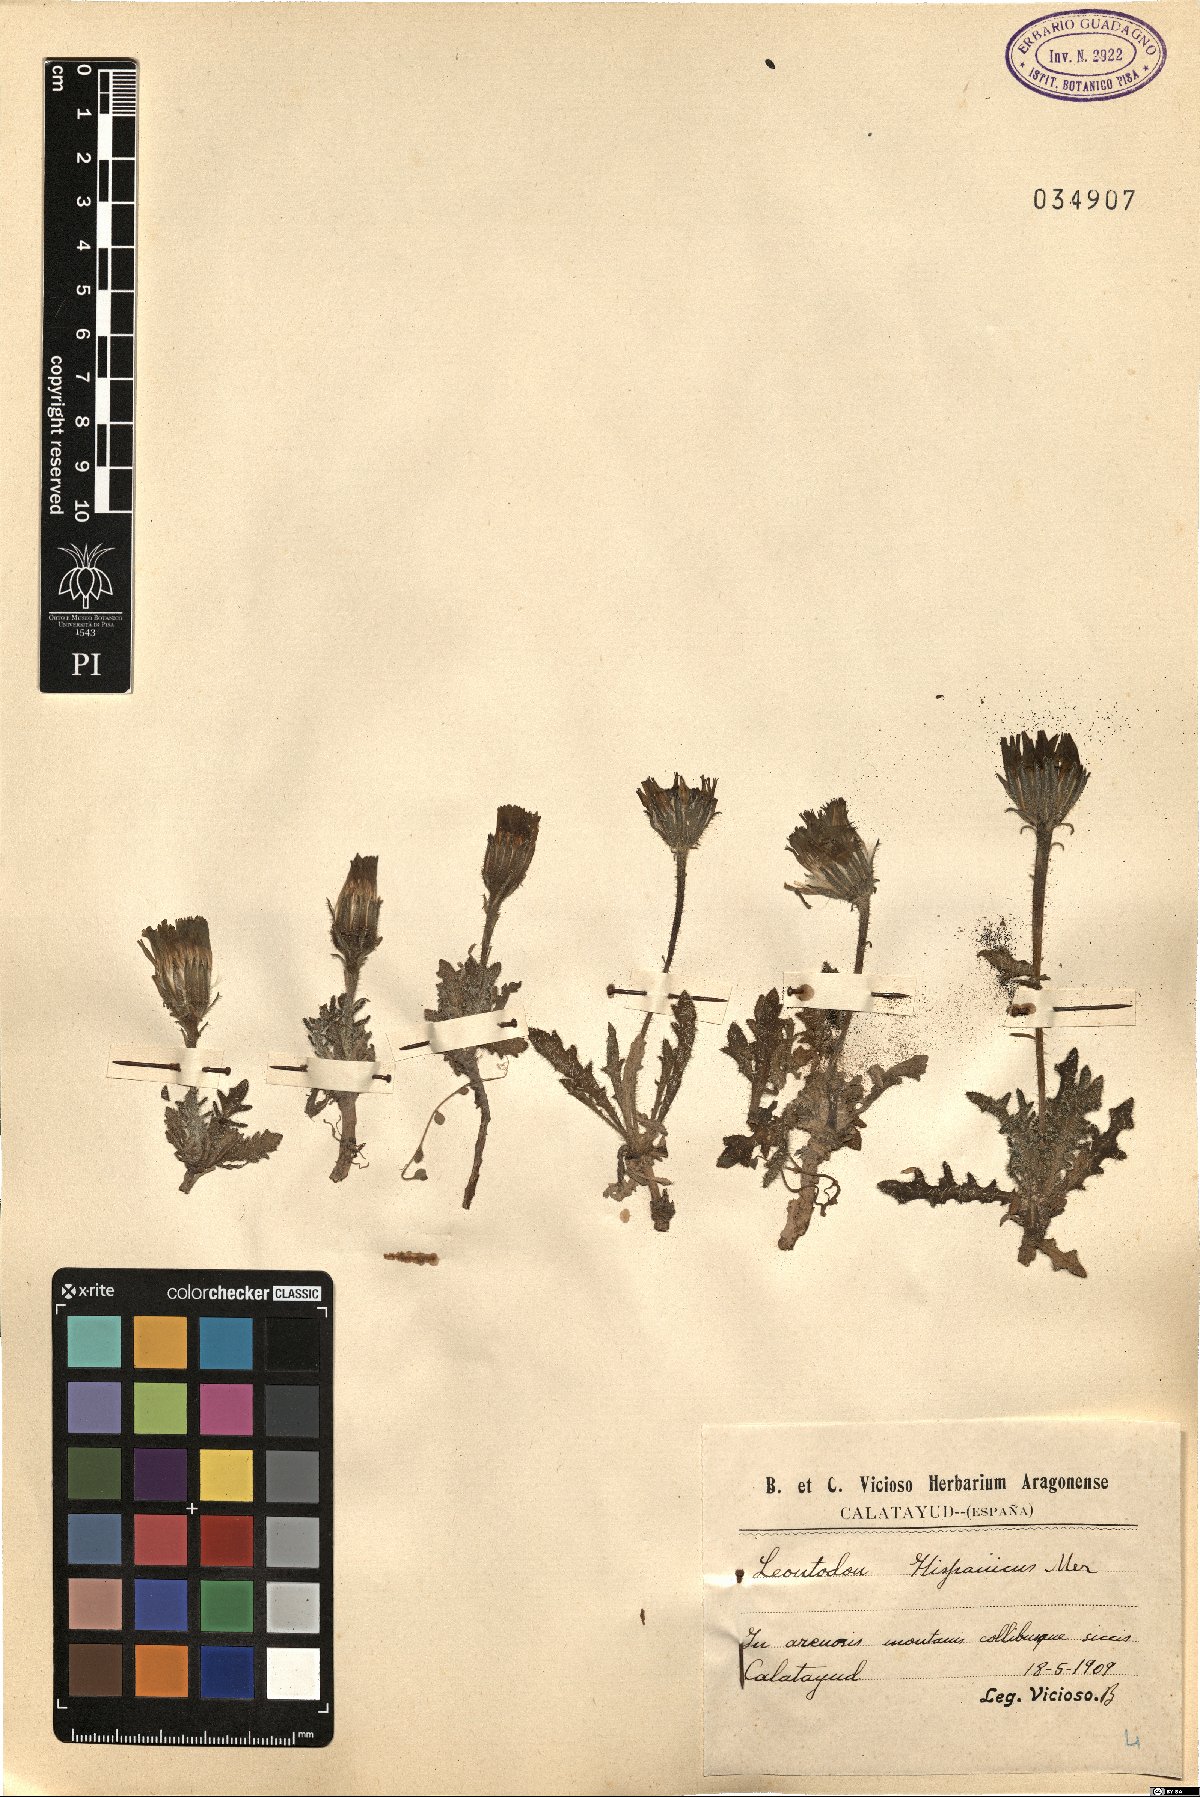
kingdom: Plantae
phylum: Tracheophyta
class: Magnoliopsida
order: Asterales
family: Asteraceae
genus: Picris
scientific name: Picris hispanica
